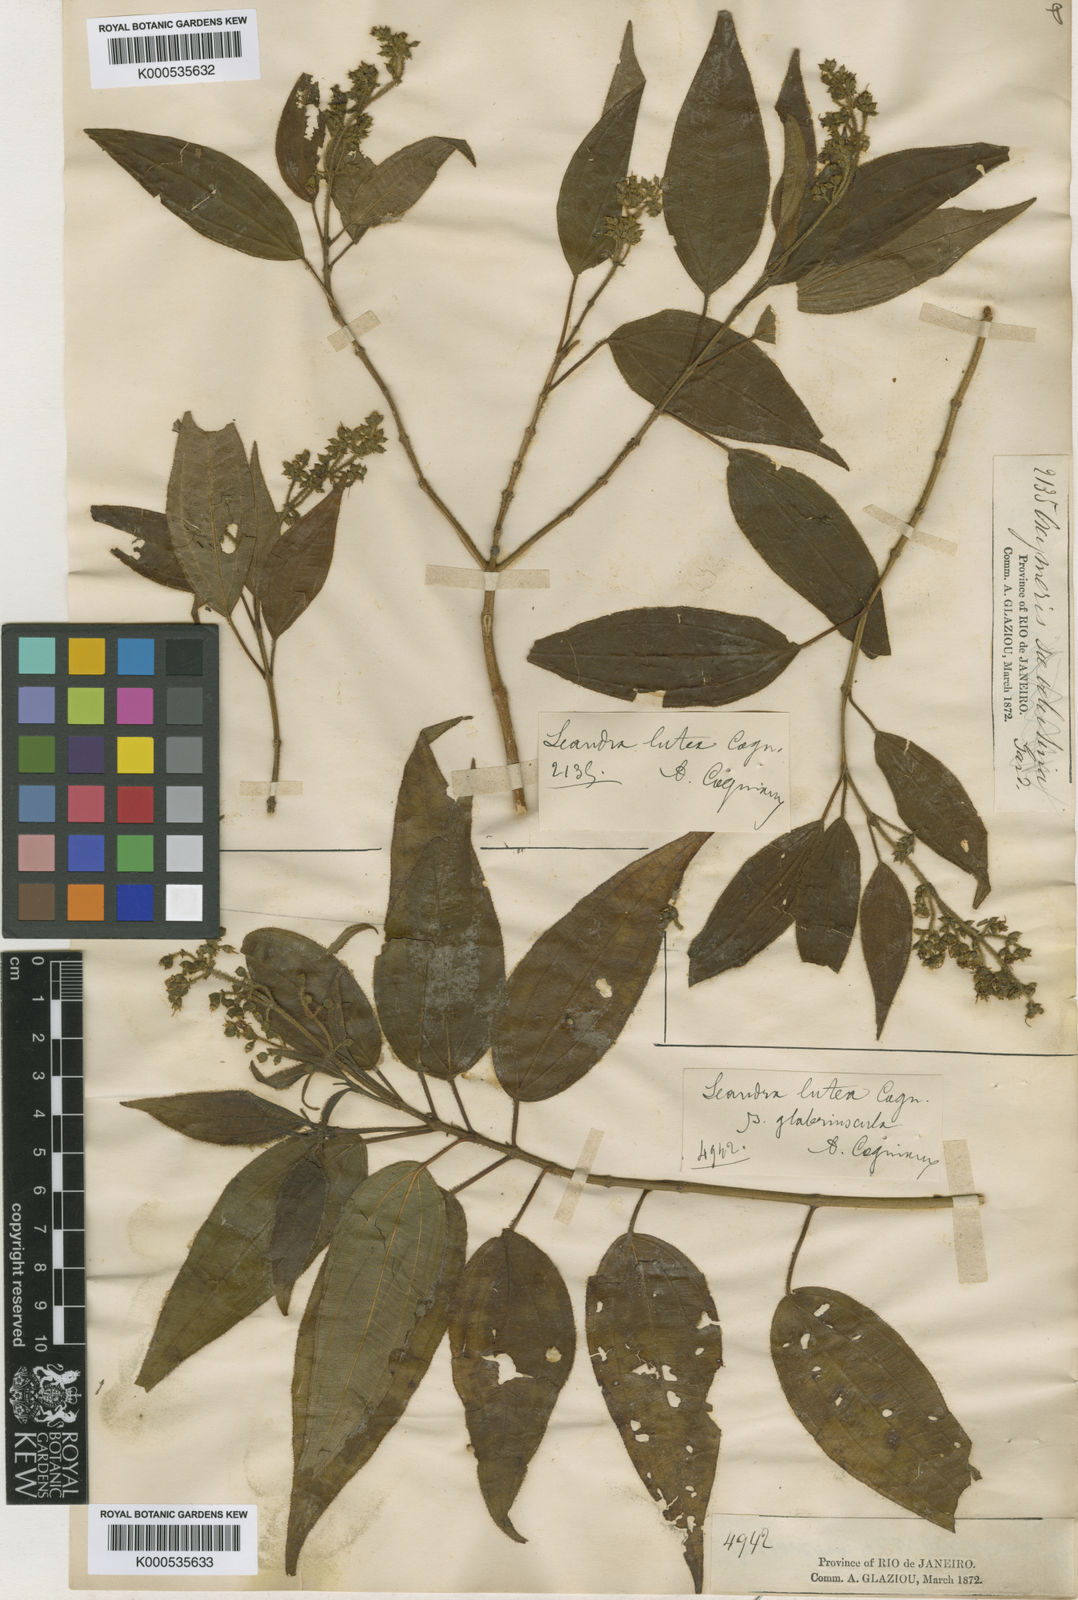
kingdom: Plantae
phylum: Tracheophyta
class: Magnoliopsida
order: Myrtales
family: Melastomataceae
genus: Miconia
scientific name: Miconia lutea
